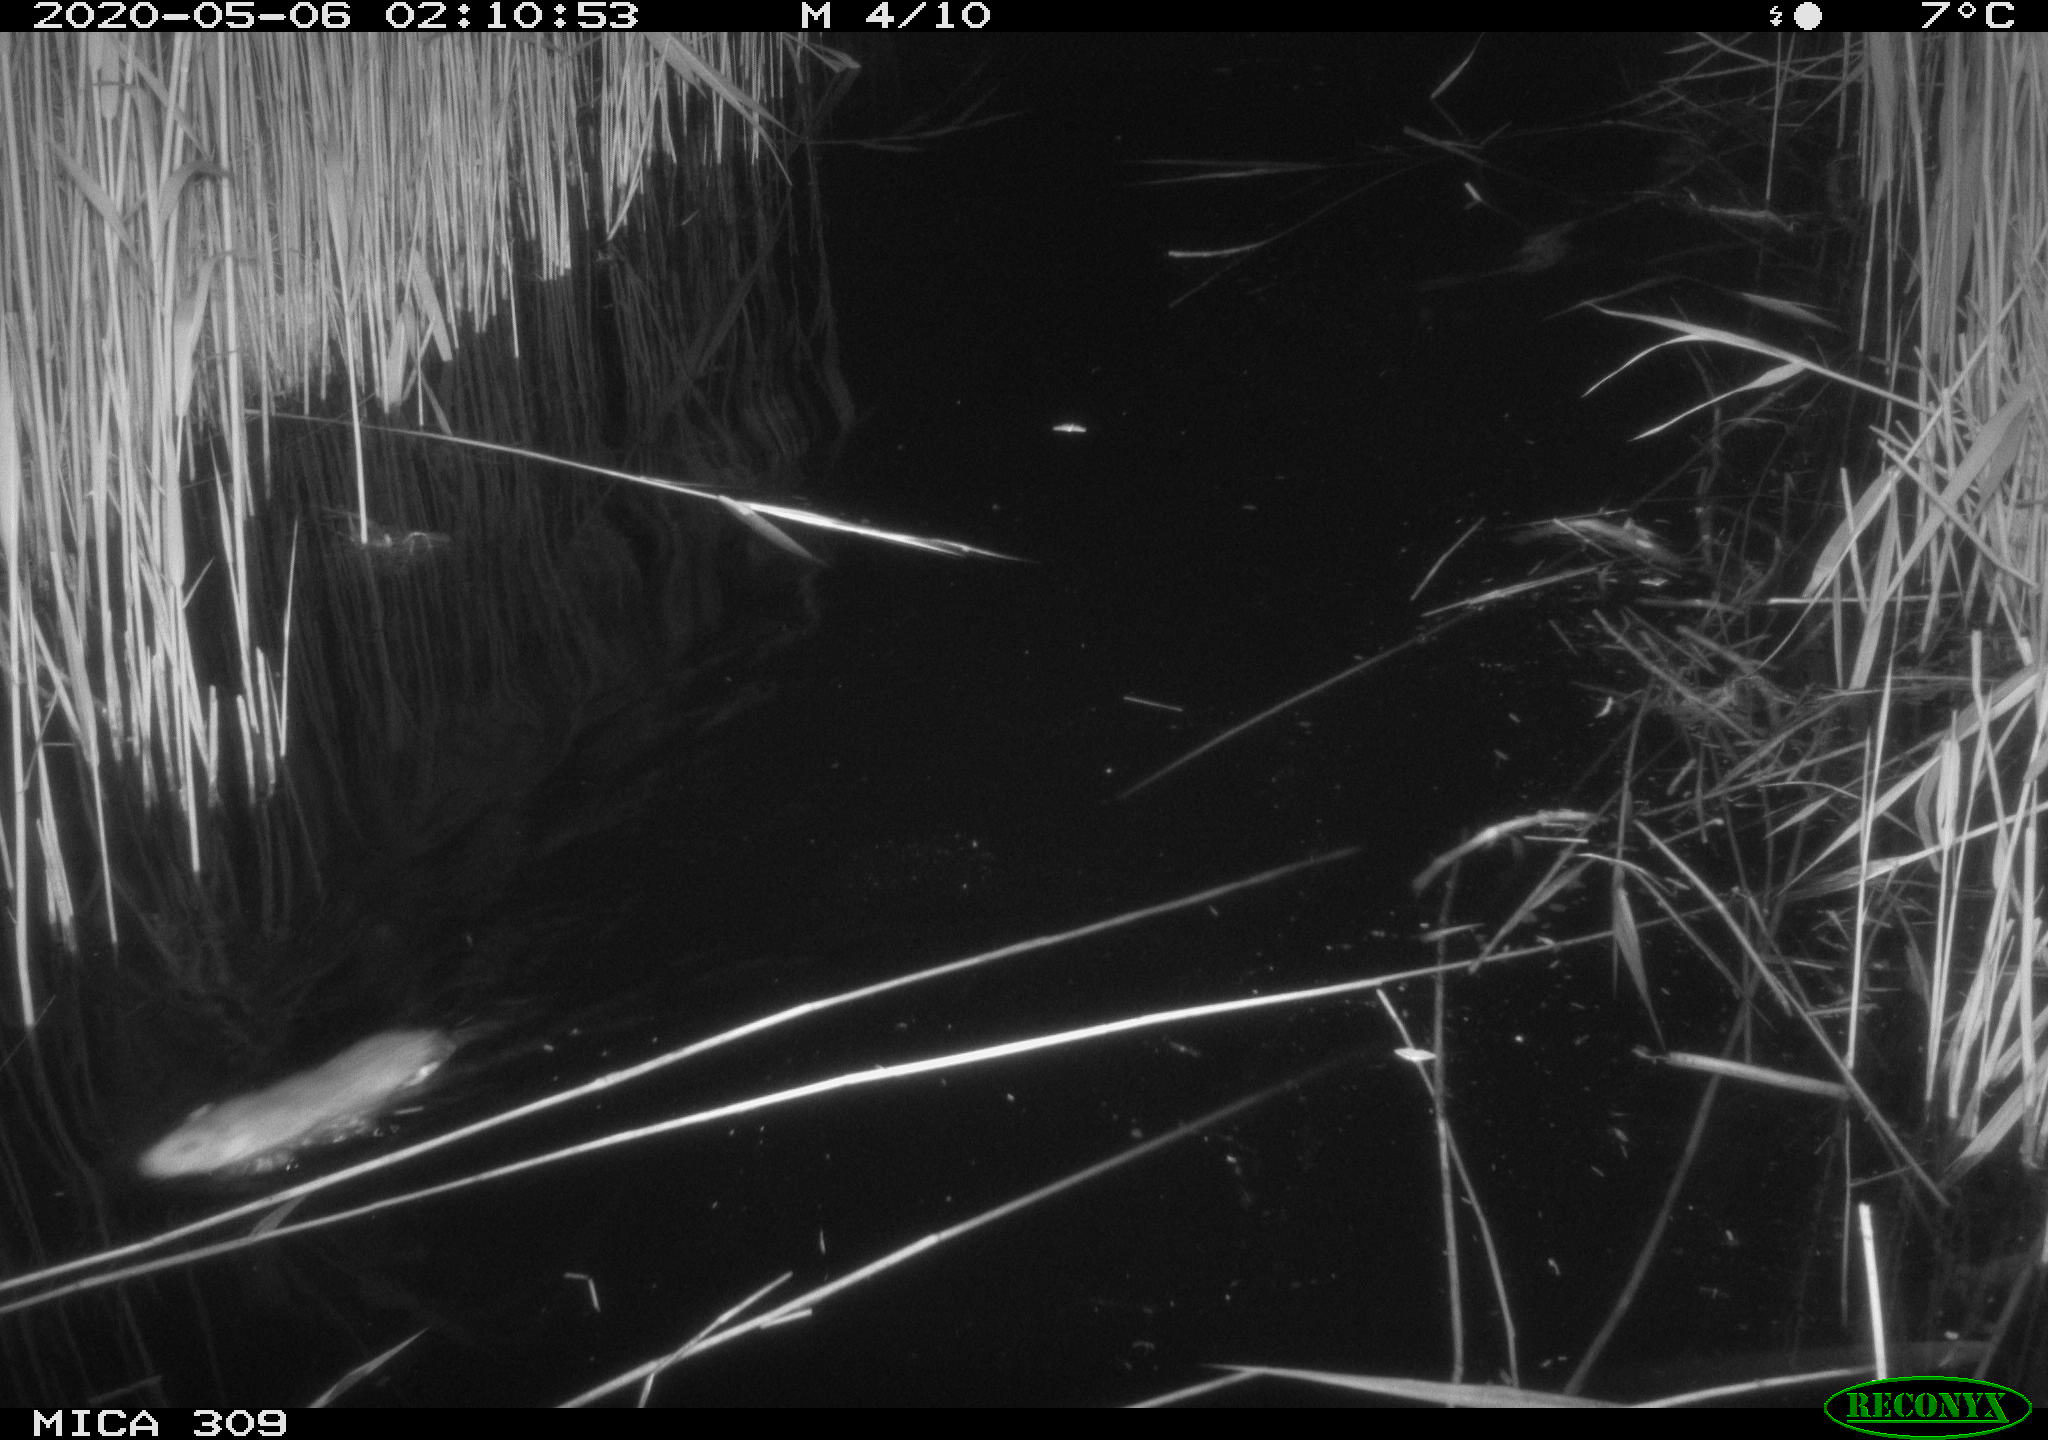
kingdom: Animalia
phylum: Chordata
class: Mammalia
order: Rodentia
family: Muridae
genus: Rattus
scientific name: Rattus norvegicus
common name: Brown rat
